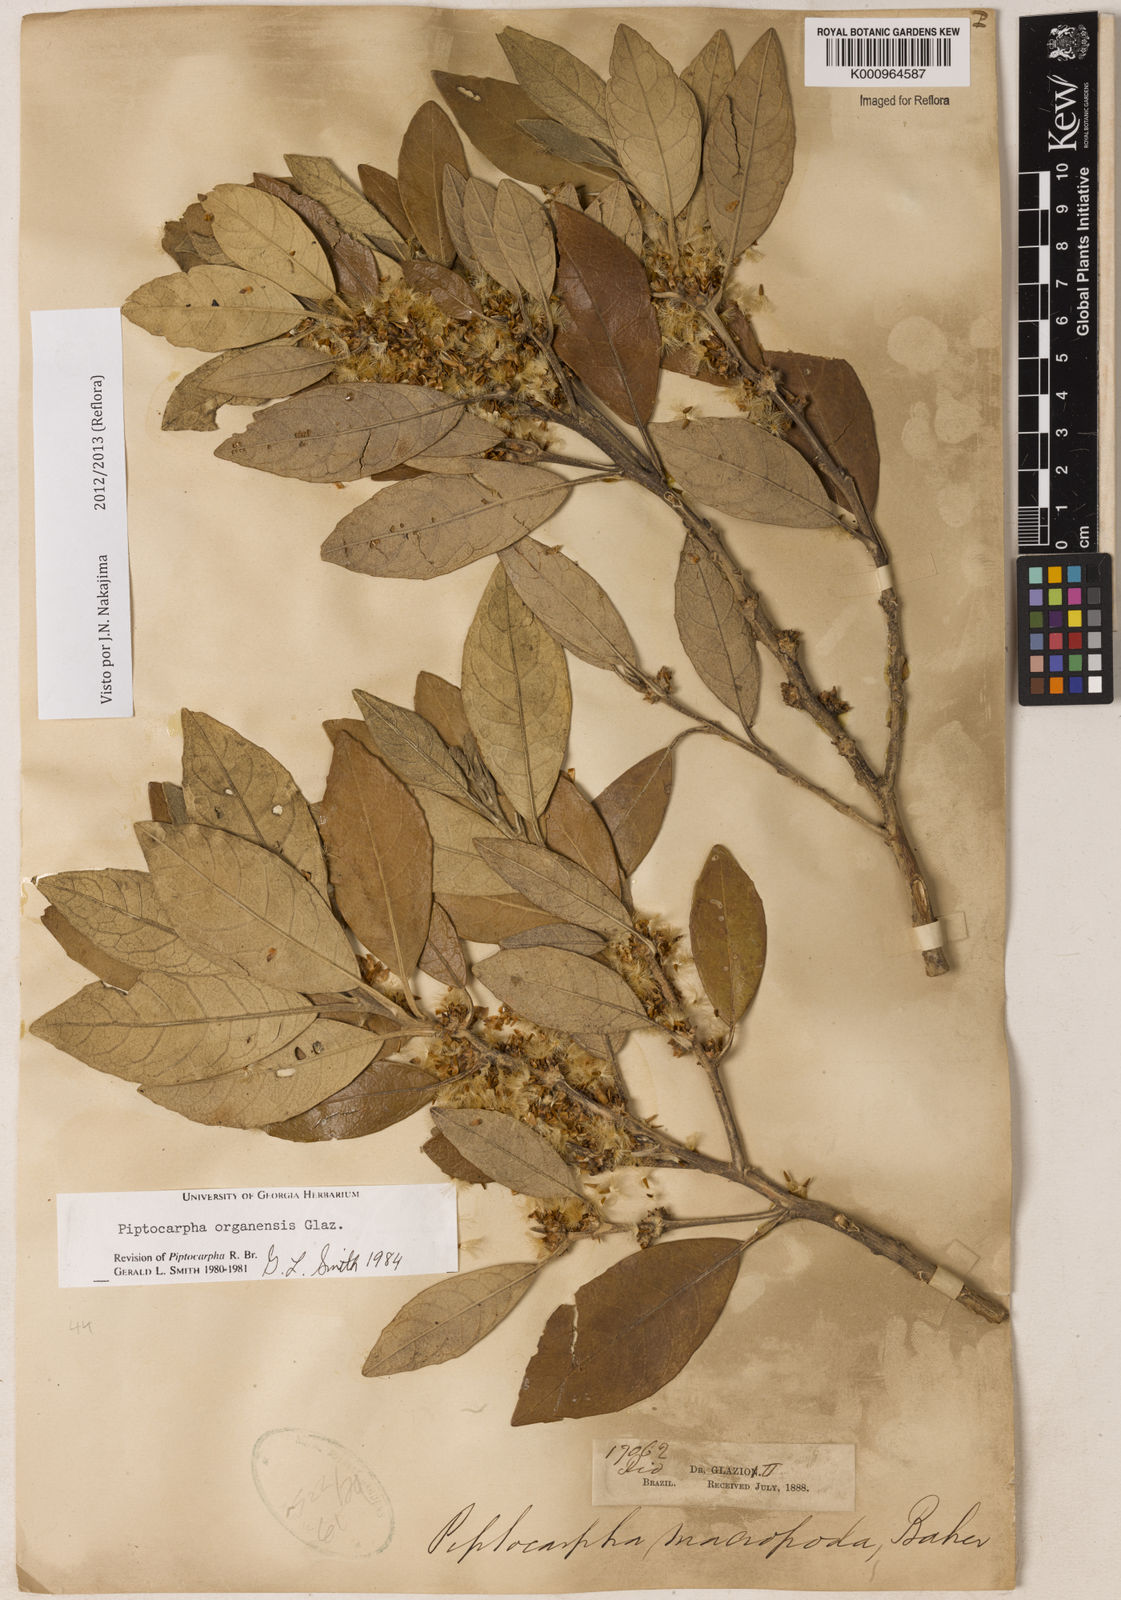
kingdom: Plantae
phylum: Tracheophyta
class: Magnoliopsida
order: Asterales
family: Asteraceae
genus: Piptocarpha
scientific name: Piptocarpha organensis
